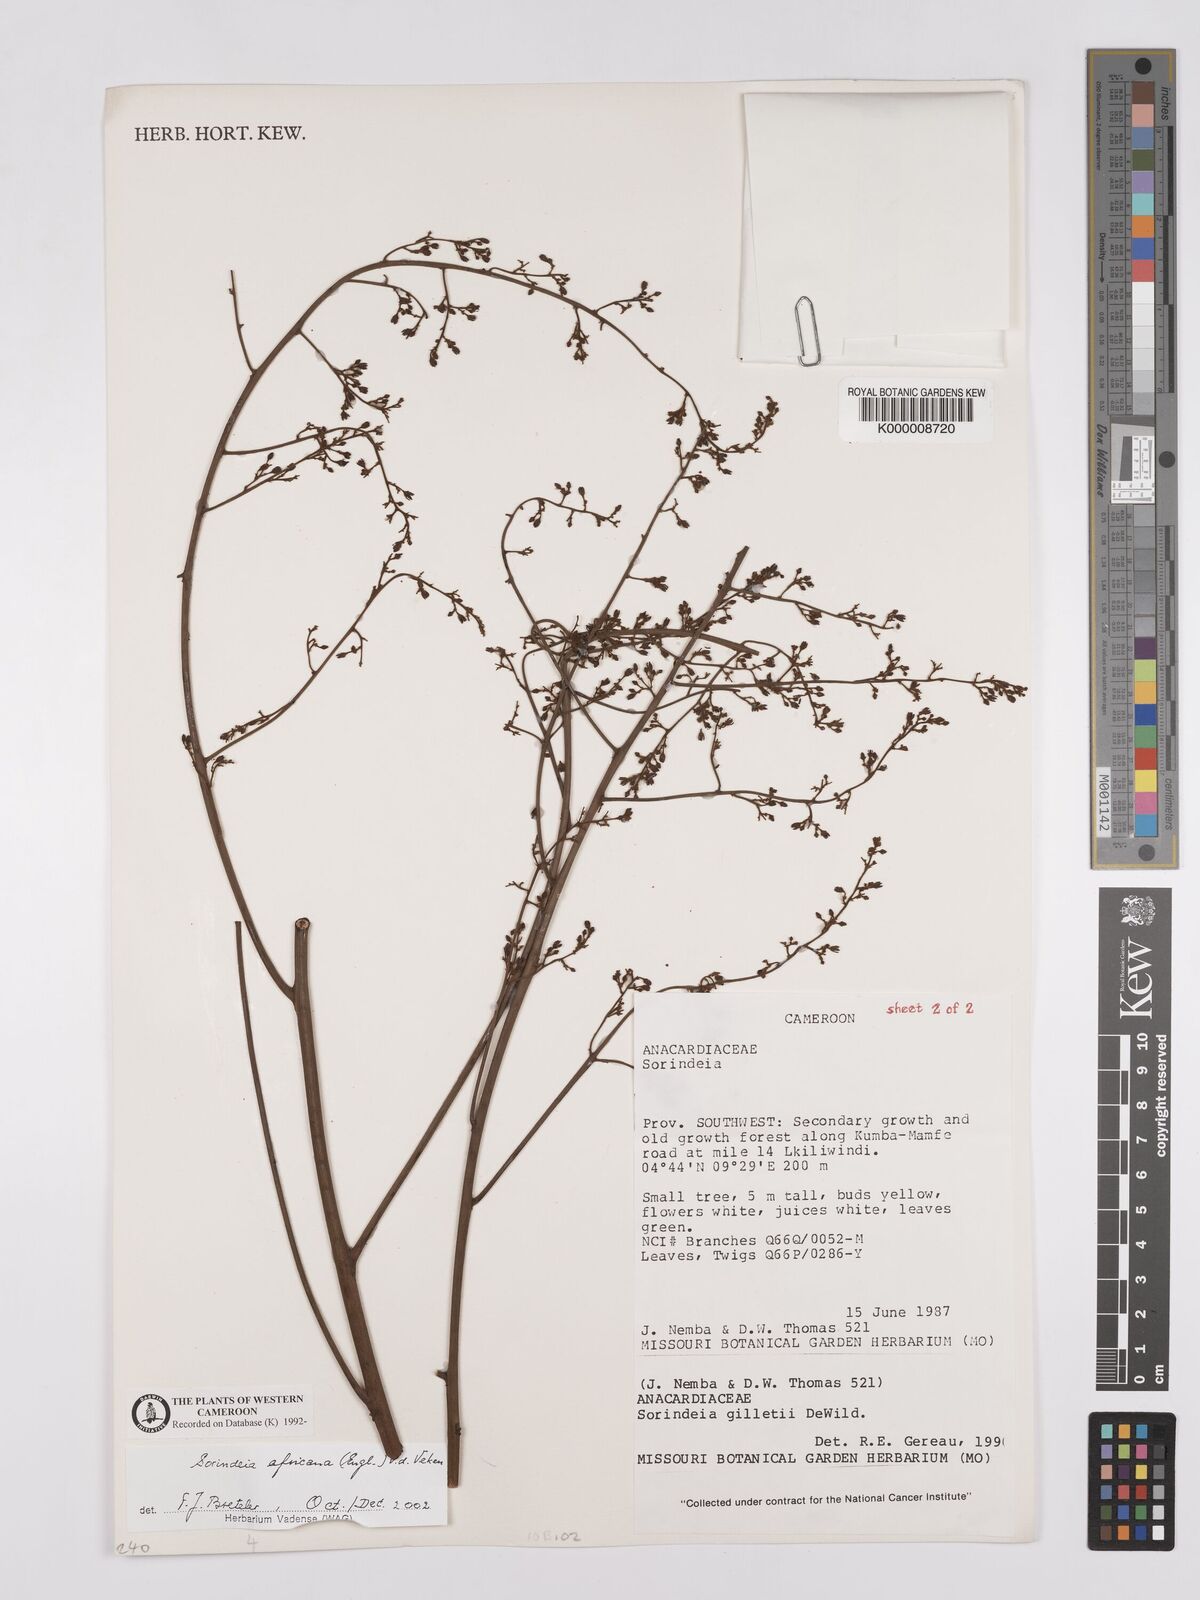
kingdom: Plantae
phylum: Tracheophyta
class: Magnoliopsida
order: Sapindales
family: Anacardiaceae
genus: Sorindeia
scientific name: Sorindeia africana
